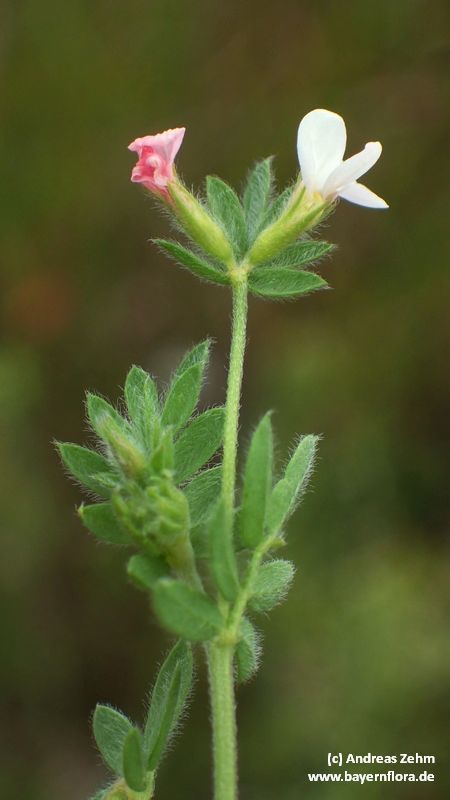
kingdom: Plantae
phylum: Tracheophyta
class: Magnoliopsida
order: Fabales
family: Fabaceae
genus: Ornithopus
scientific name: Ornithopus sativus
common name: Serradella
